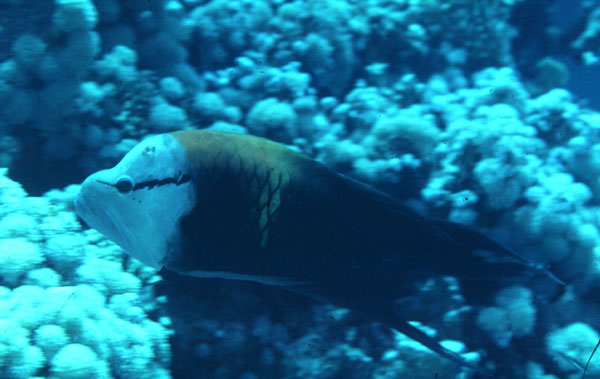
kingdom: Animalia
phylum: Chordata
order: Perciformes
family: Labridae
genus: Epibulus
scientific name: Epibulus insidiator
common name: Slingjaw wrasse
